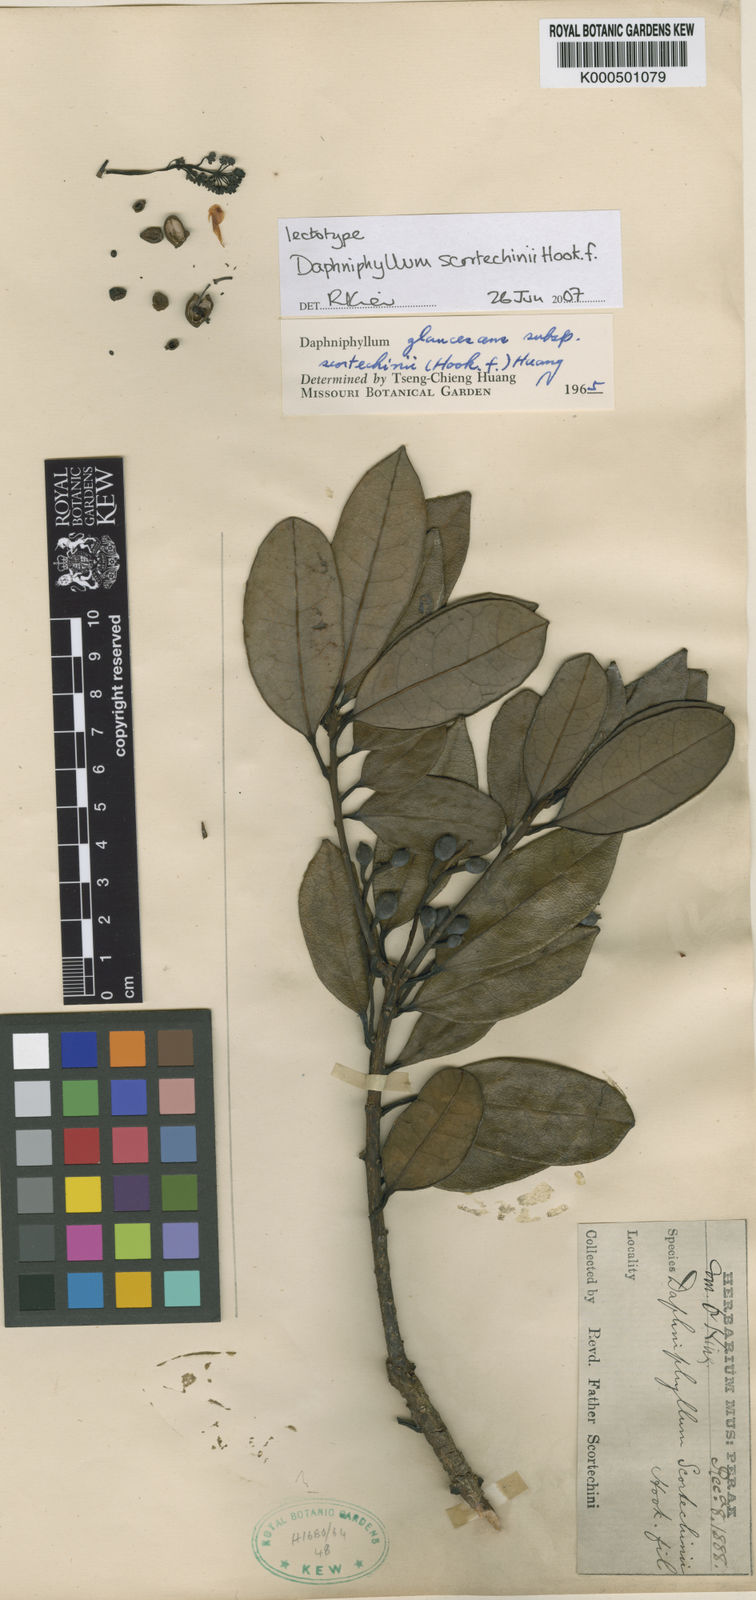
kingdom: Plantae
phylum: Tracheophyta
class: Magnoliopsida
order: Saxifragales
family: Daphniphyllaceae
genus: Daphniphyllum
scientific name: Daphniphyllum scortechinii
